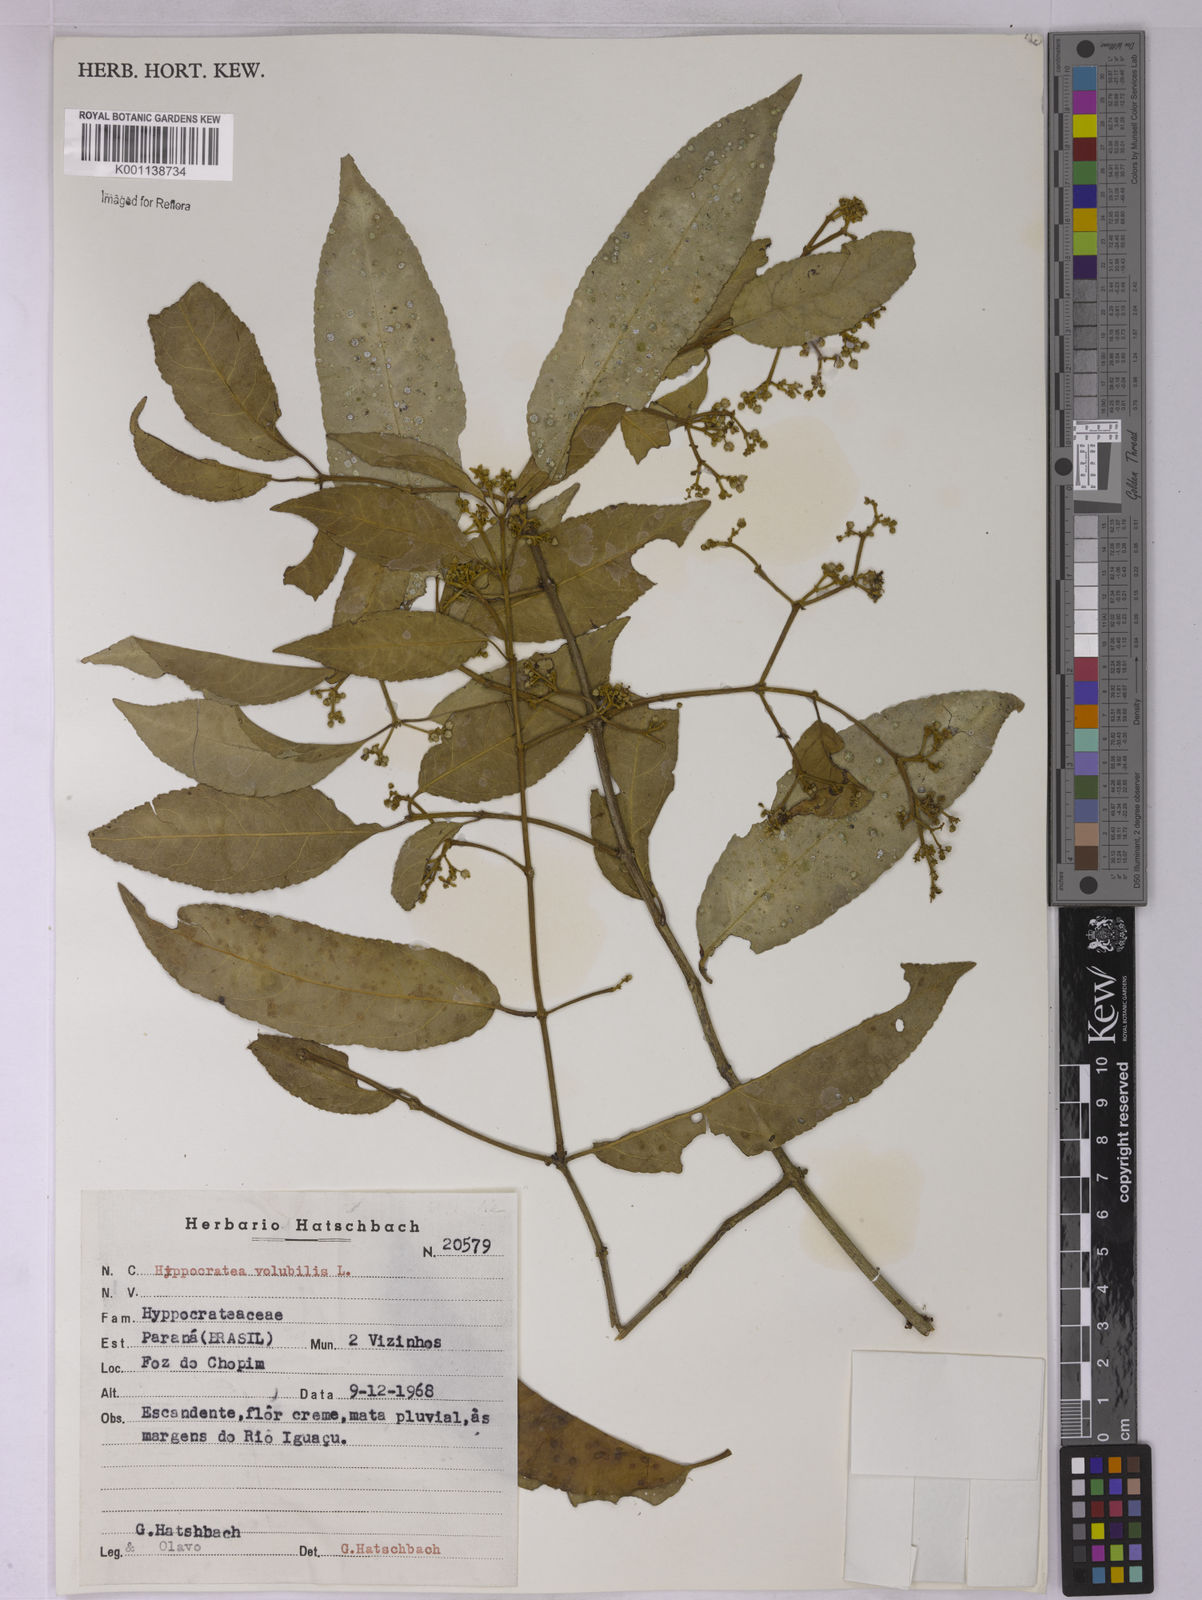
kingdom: Plantae
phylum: Tracheophyta
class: Magnoliopsida
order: Celastrales
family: Celastraceae
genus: Hippocratea
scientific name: Hippocratea volubilis
